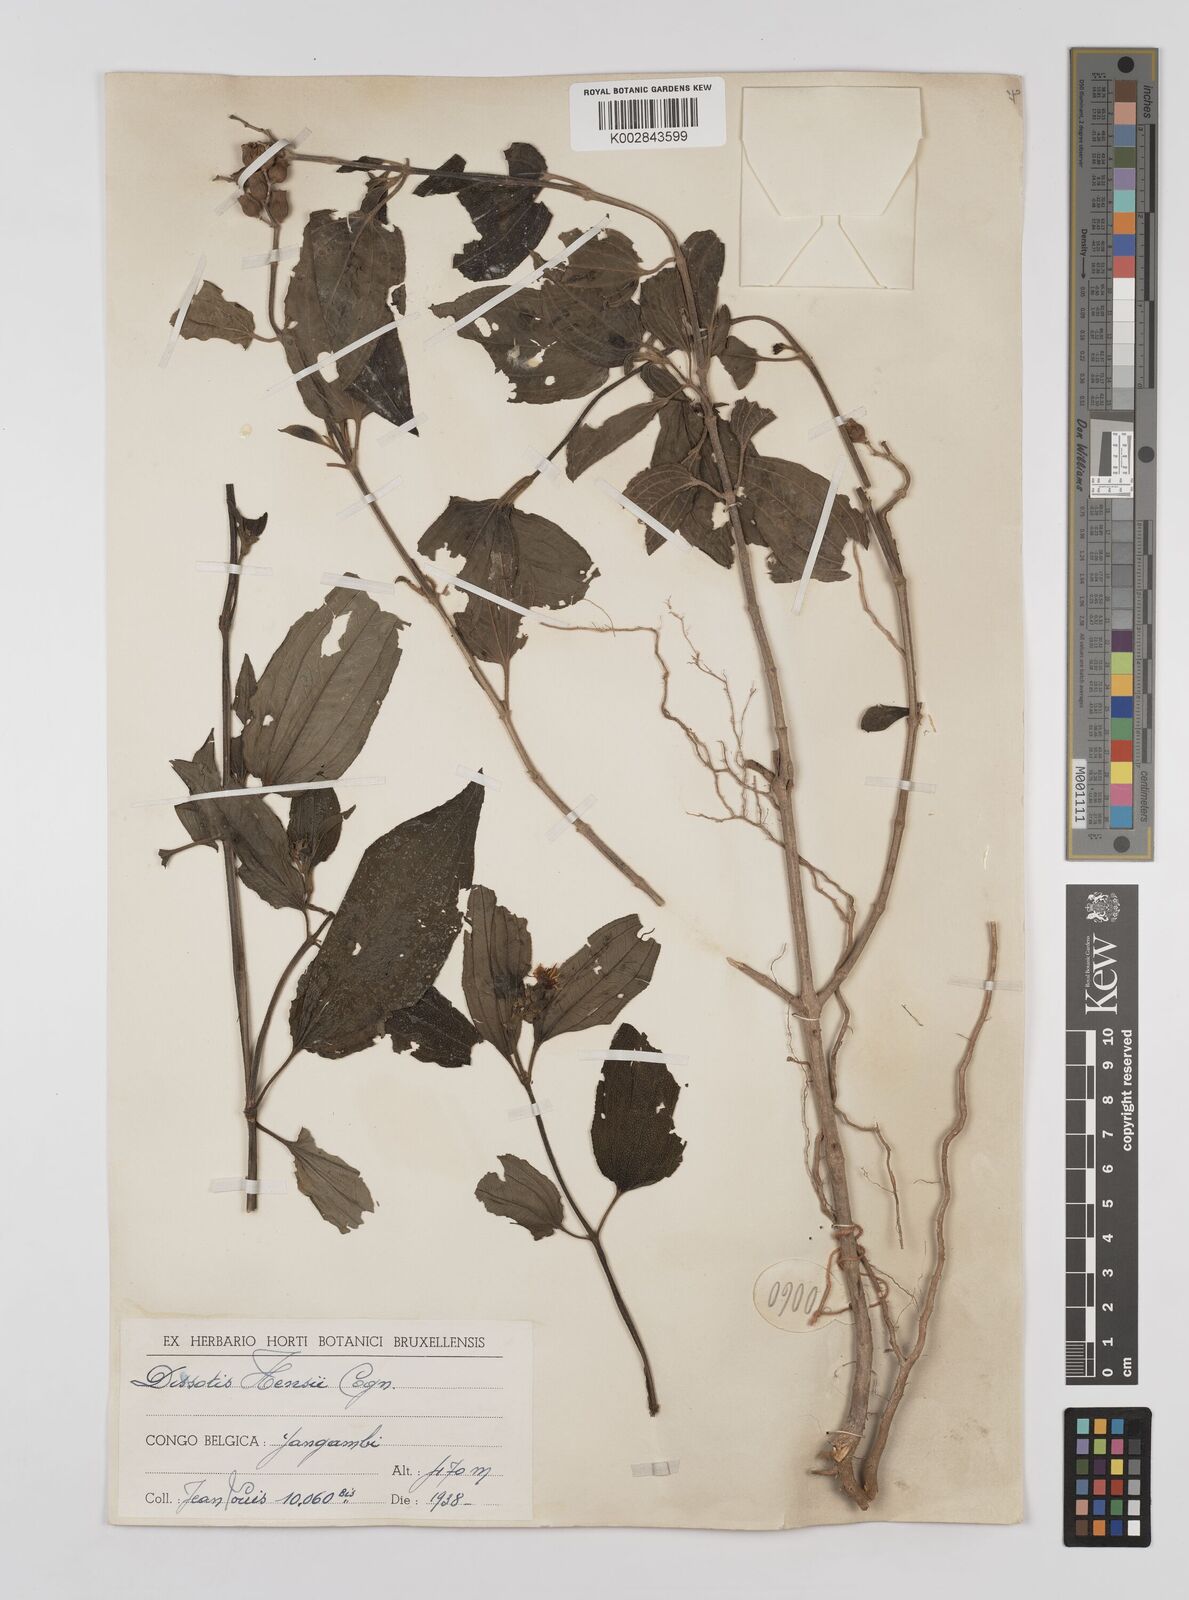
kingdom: Plantae
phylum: Tracheophyta
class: Magnoliopsida
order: Myrtales
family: Melastomataceae
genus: Dupineta
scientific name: Dupineta hensii
